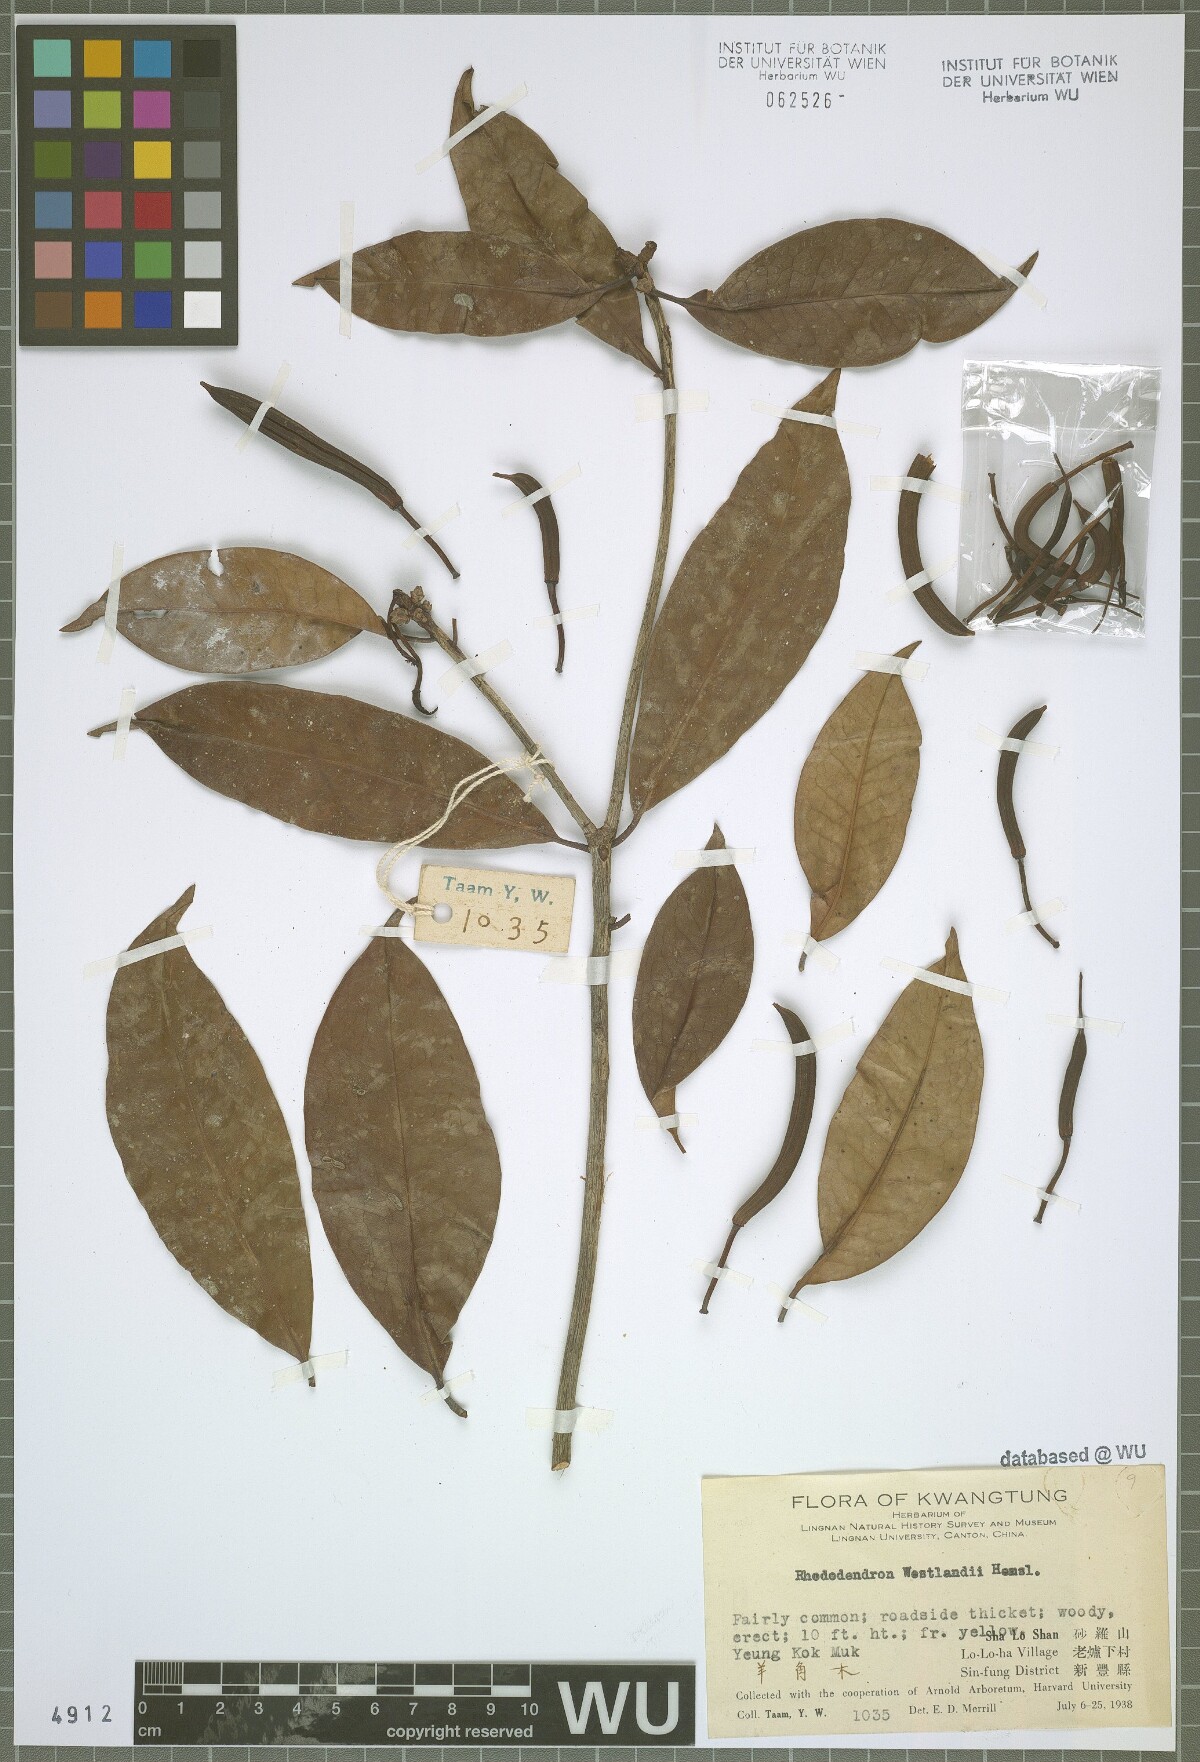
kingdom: Plantae
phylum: Tracheophyta
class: Magnoliopsida
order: Ericales
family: Ericaceae
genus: Rhododendron
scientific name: Rhododendron westlandii
